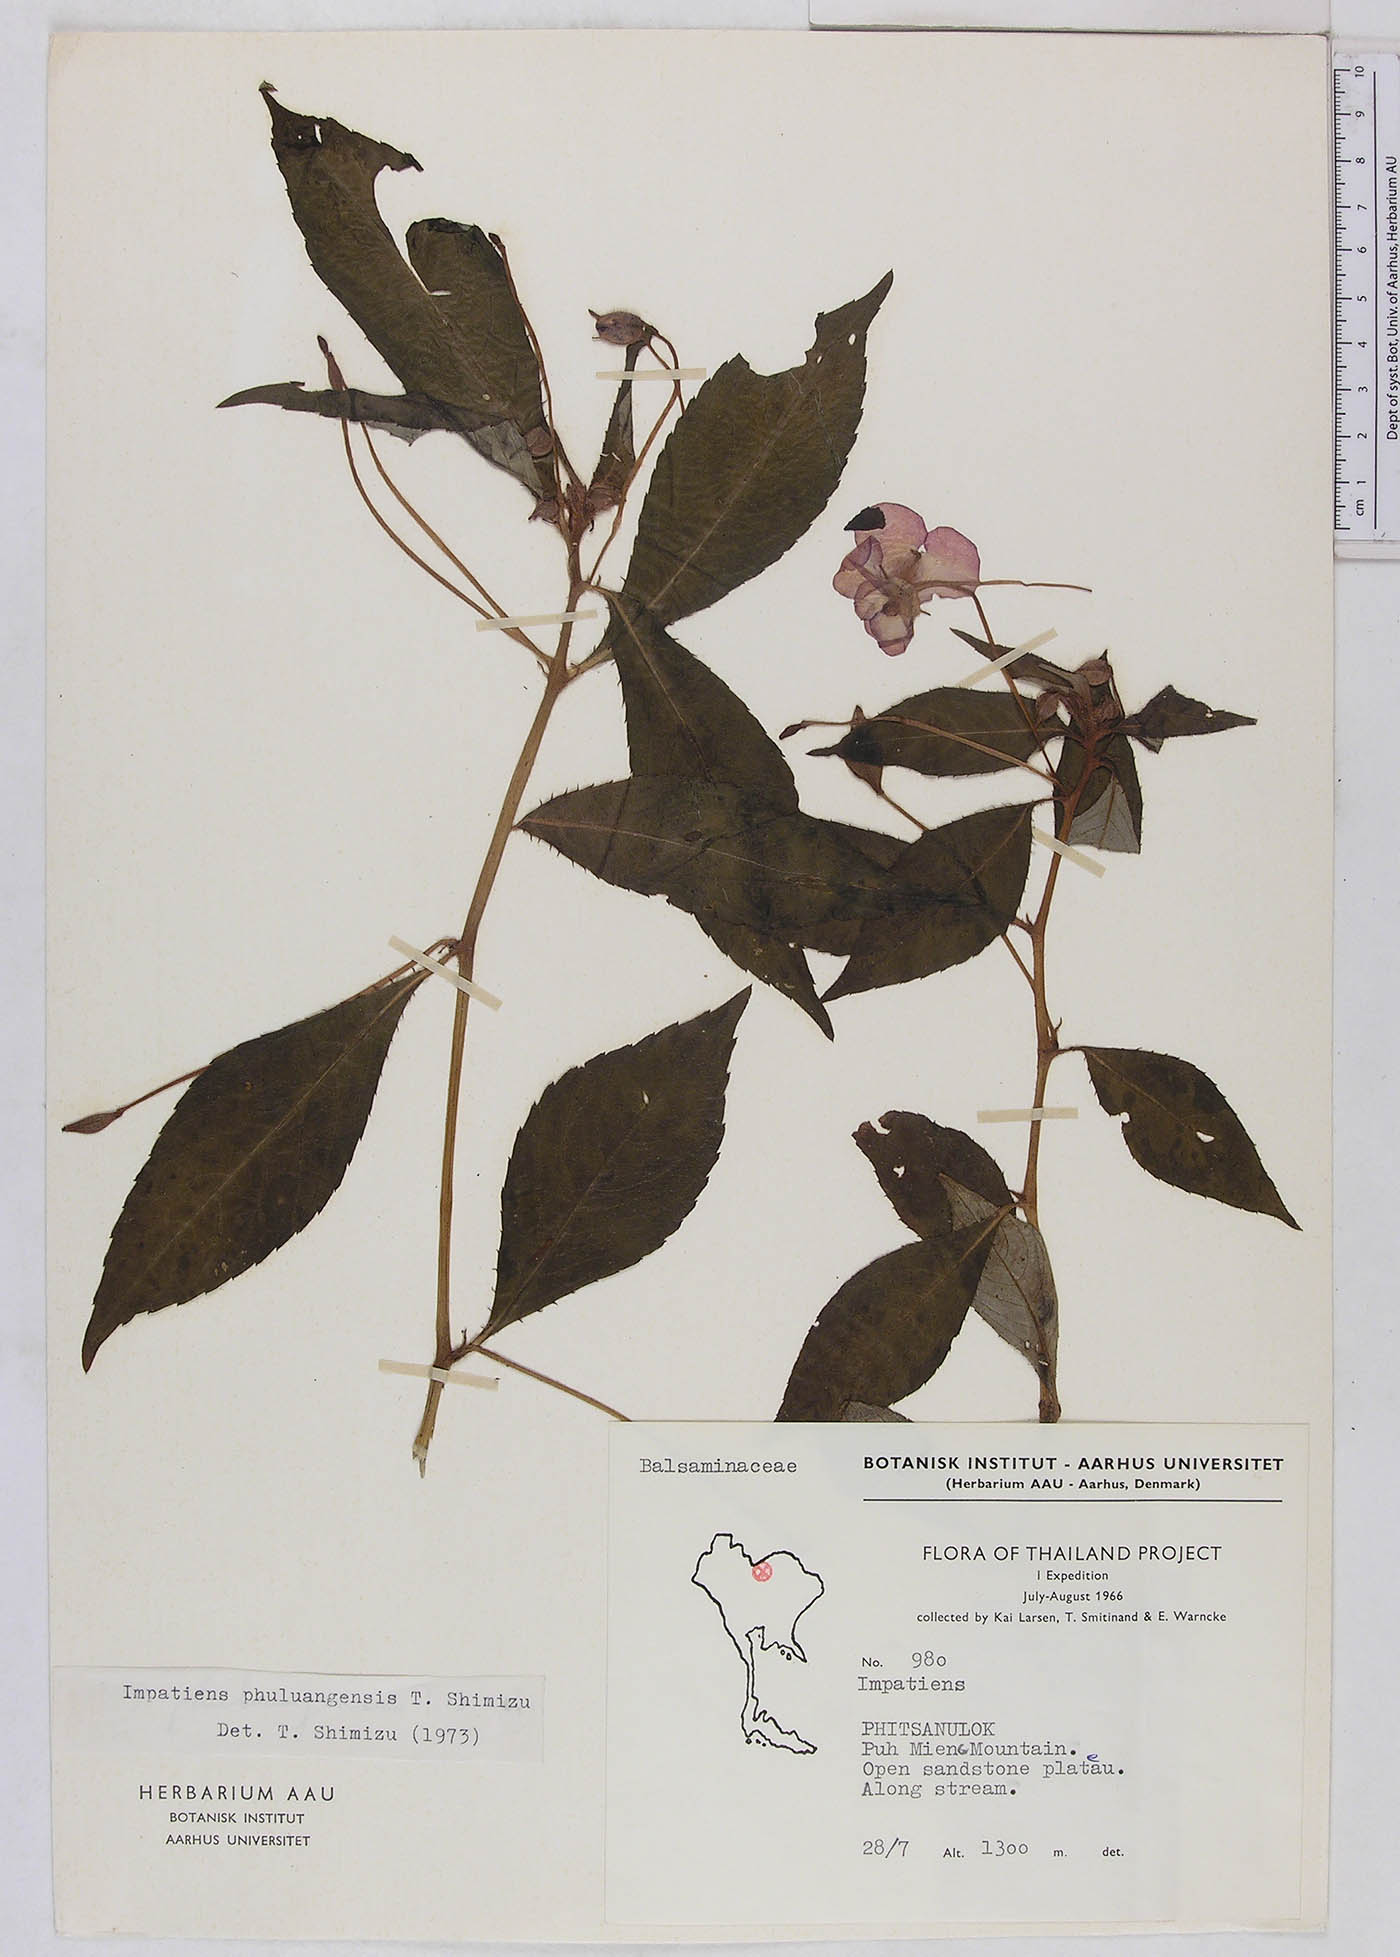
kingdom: Plantae
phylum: Tracheophyta
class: Magnoliopsida
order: Ericales
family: Balsaminaceae
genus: Impatiens
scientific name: Impatiens phuluangensis
